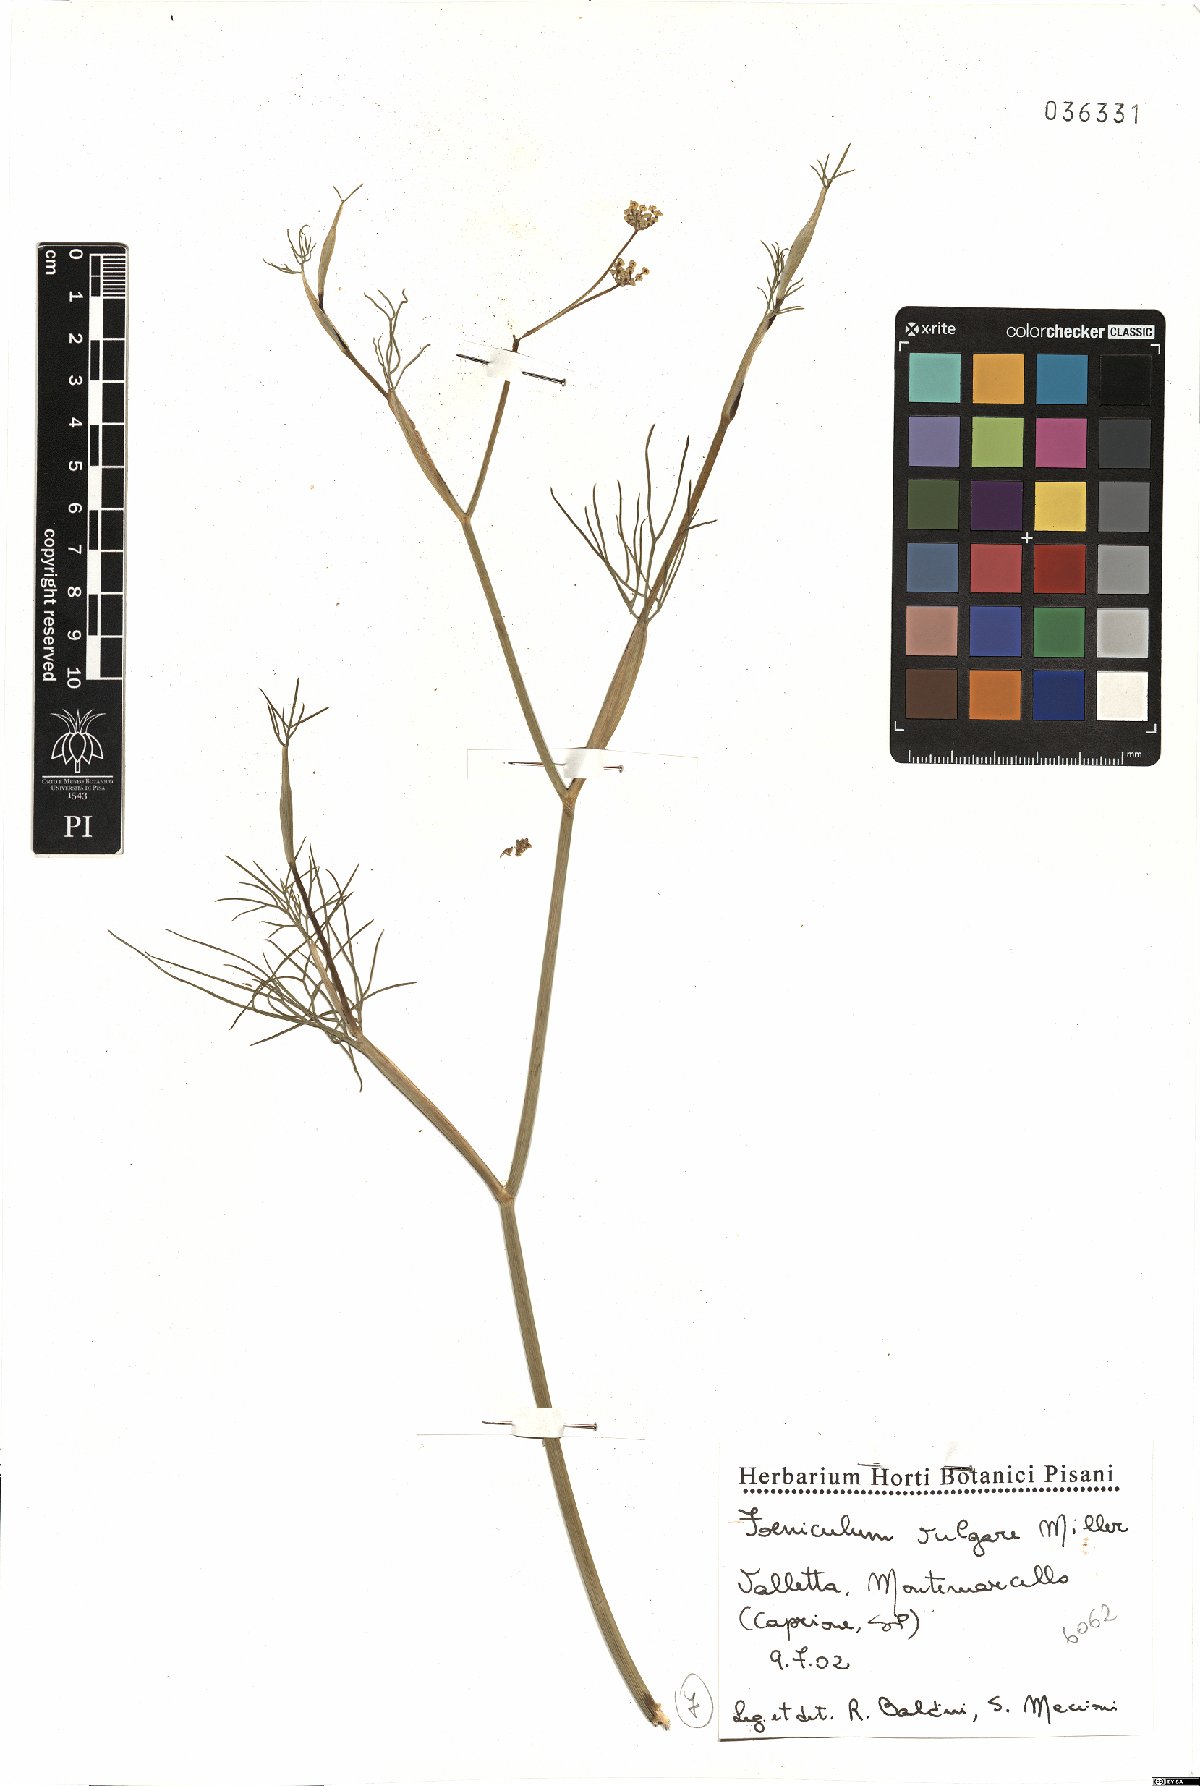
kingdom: Plantae
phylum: Tracheophyta
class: Magnoliopsida
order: Apiales
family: Apiaceae
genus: Foeniculum
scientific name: Foeniculum vulgare
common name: Fennel
